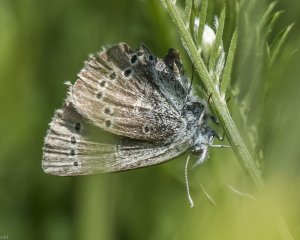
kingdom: Animalia
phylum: Arthropoda
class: Insecta
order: Lepidoptera
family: Lycaenidae
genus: Glaucopsyche
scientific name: Glaucopsyche lygdamus
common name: Silvery Blue
